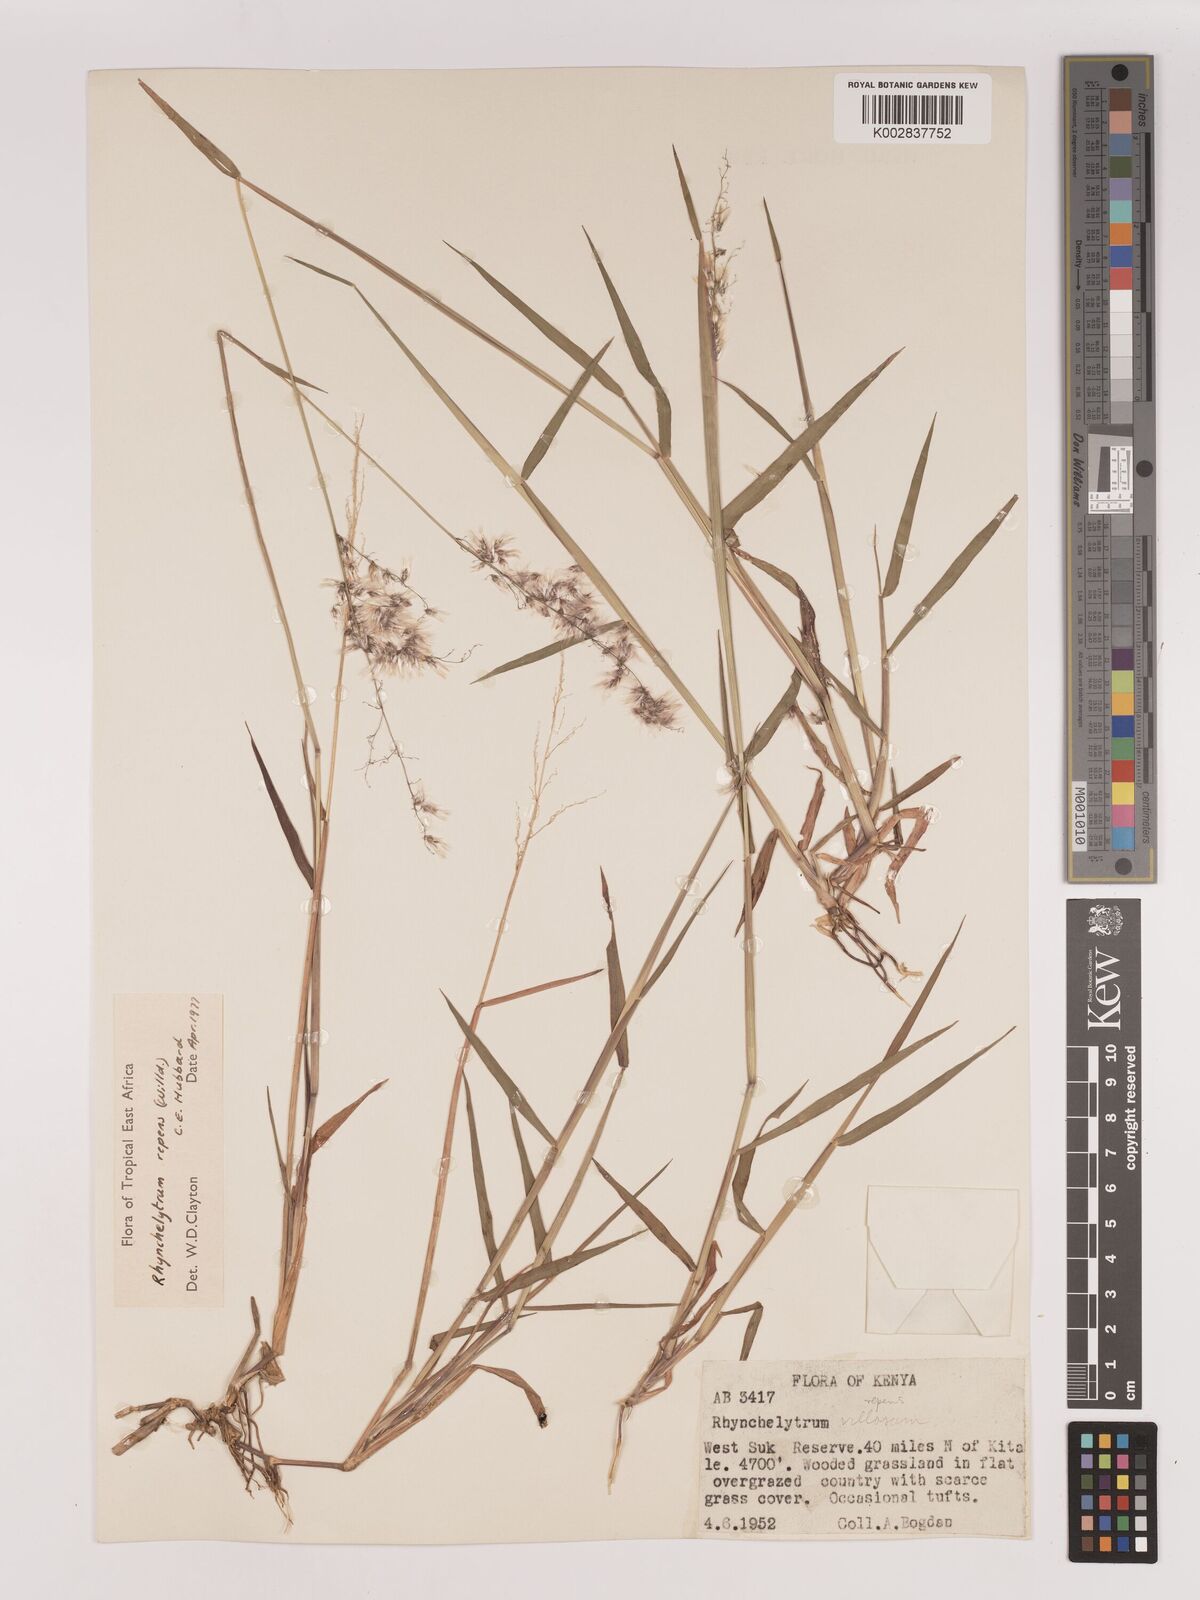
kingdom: Plantae
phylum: Tracheophyta
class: Liliopsida
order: Poales
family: Poaceae
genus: Melinis
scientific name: Melinis repens
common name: Rose natal grass
